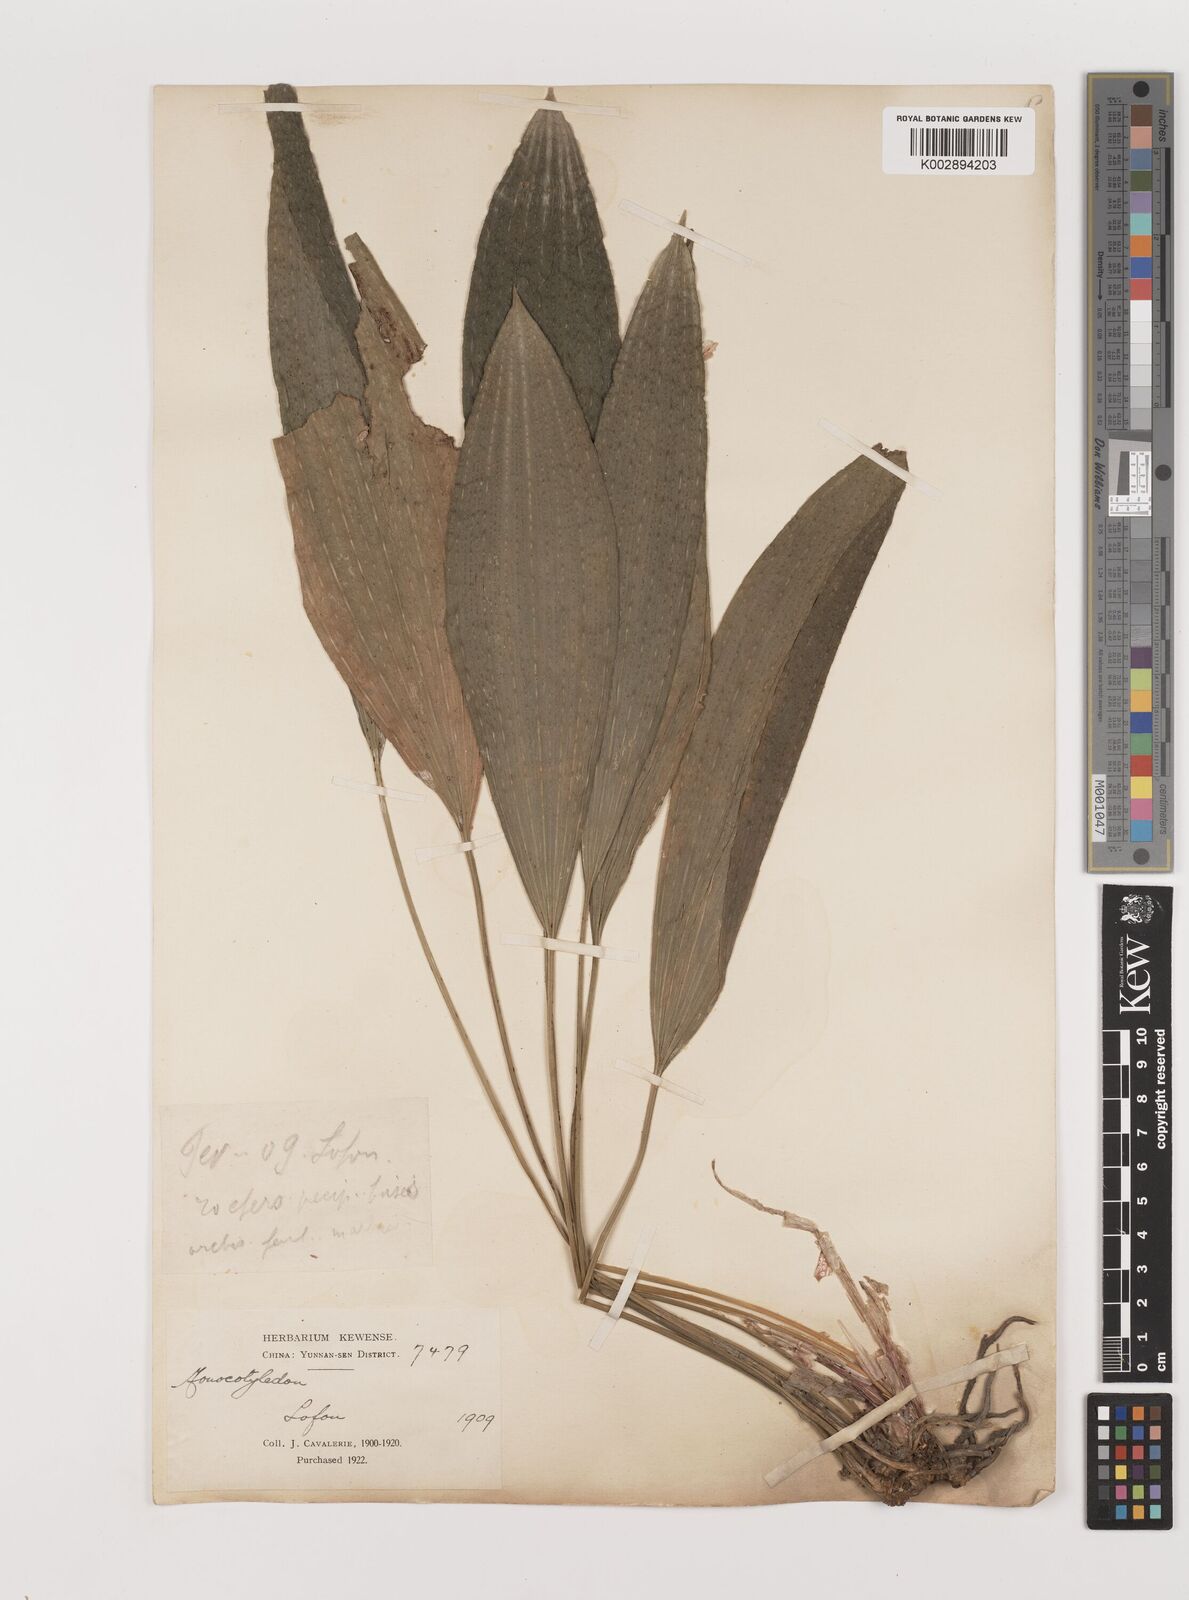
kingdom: Plantae
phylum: Tracheophyta
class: Liliopsida
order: Asparagales
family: Asparagaceae
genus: Peliosanthes
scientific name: Peliosanthes teta
